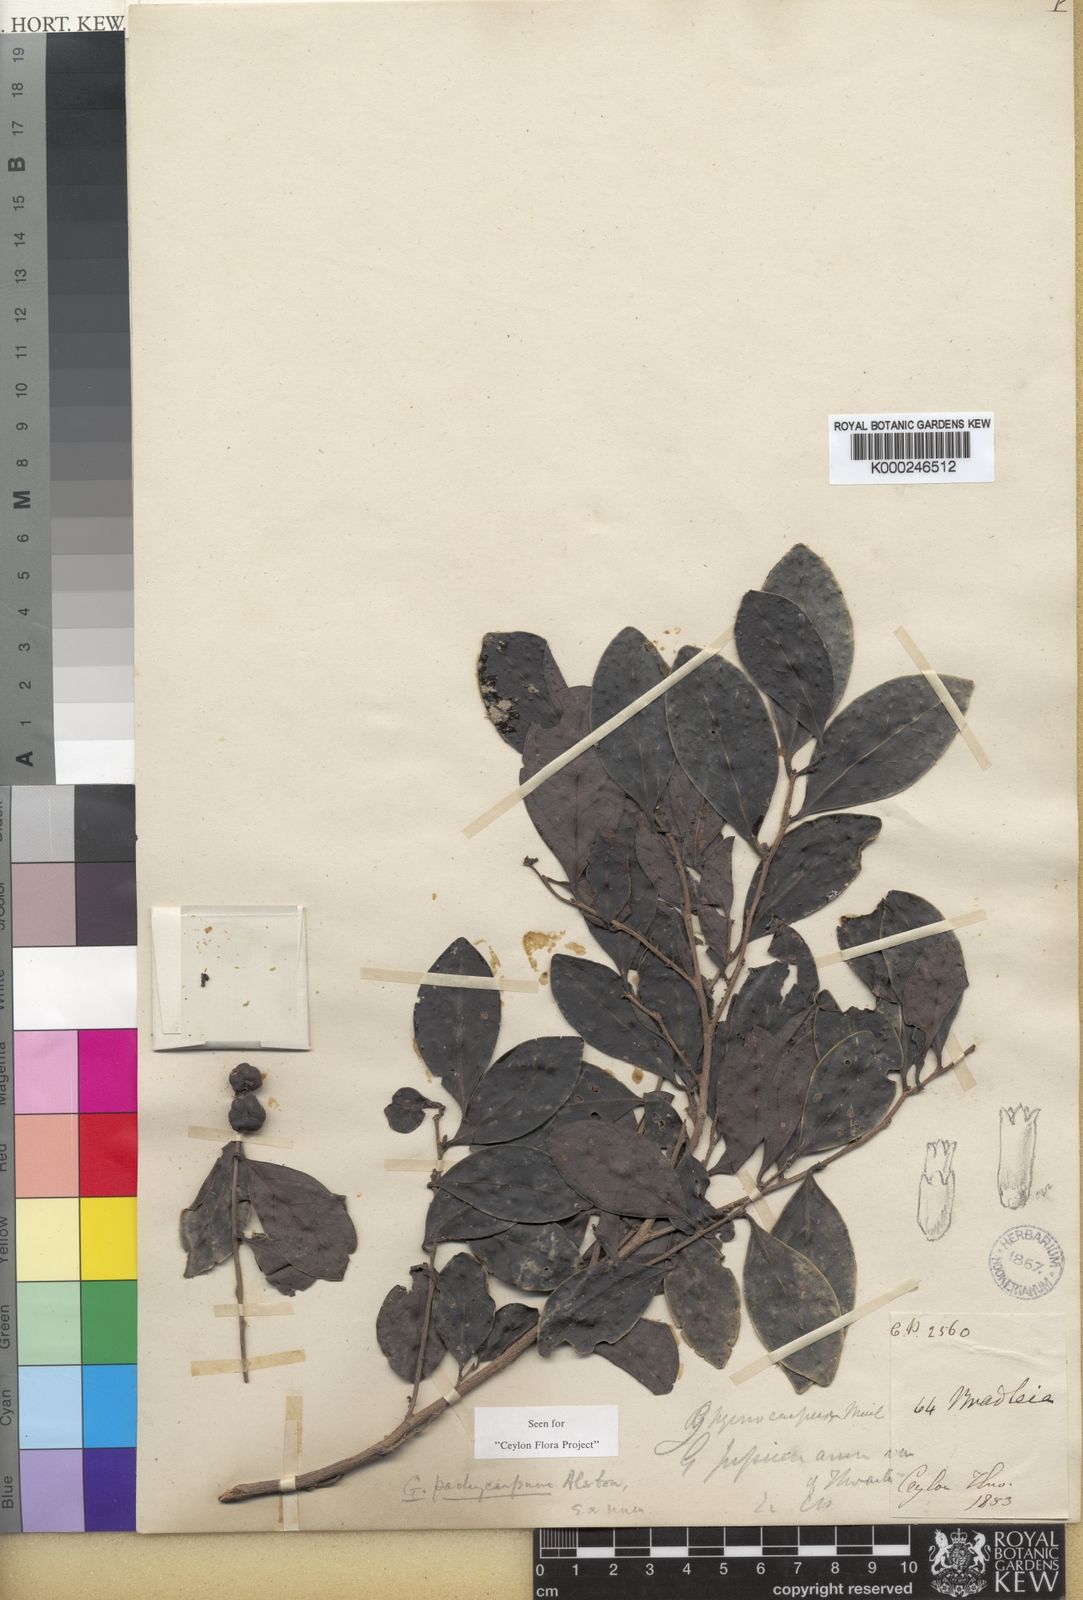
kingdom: Plantae
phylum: Tracheophyta
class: Magnoliopsida
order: Malpighiales
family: Phyllanthaceae
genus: Glochidion
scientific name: Glochidion candolleanum
